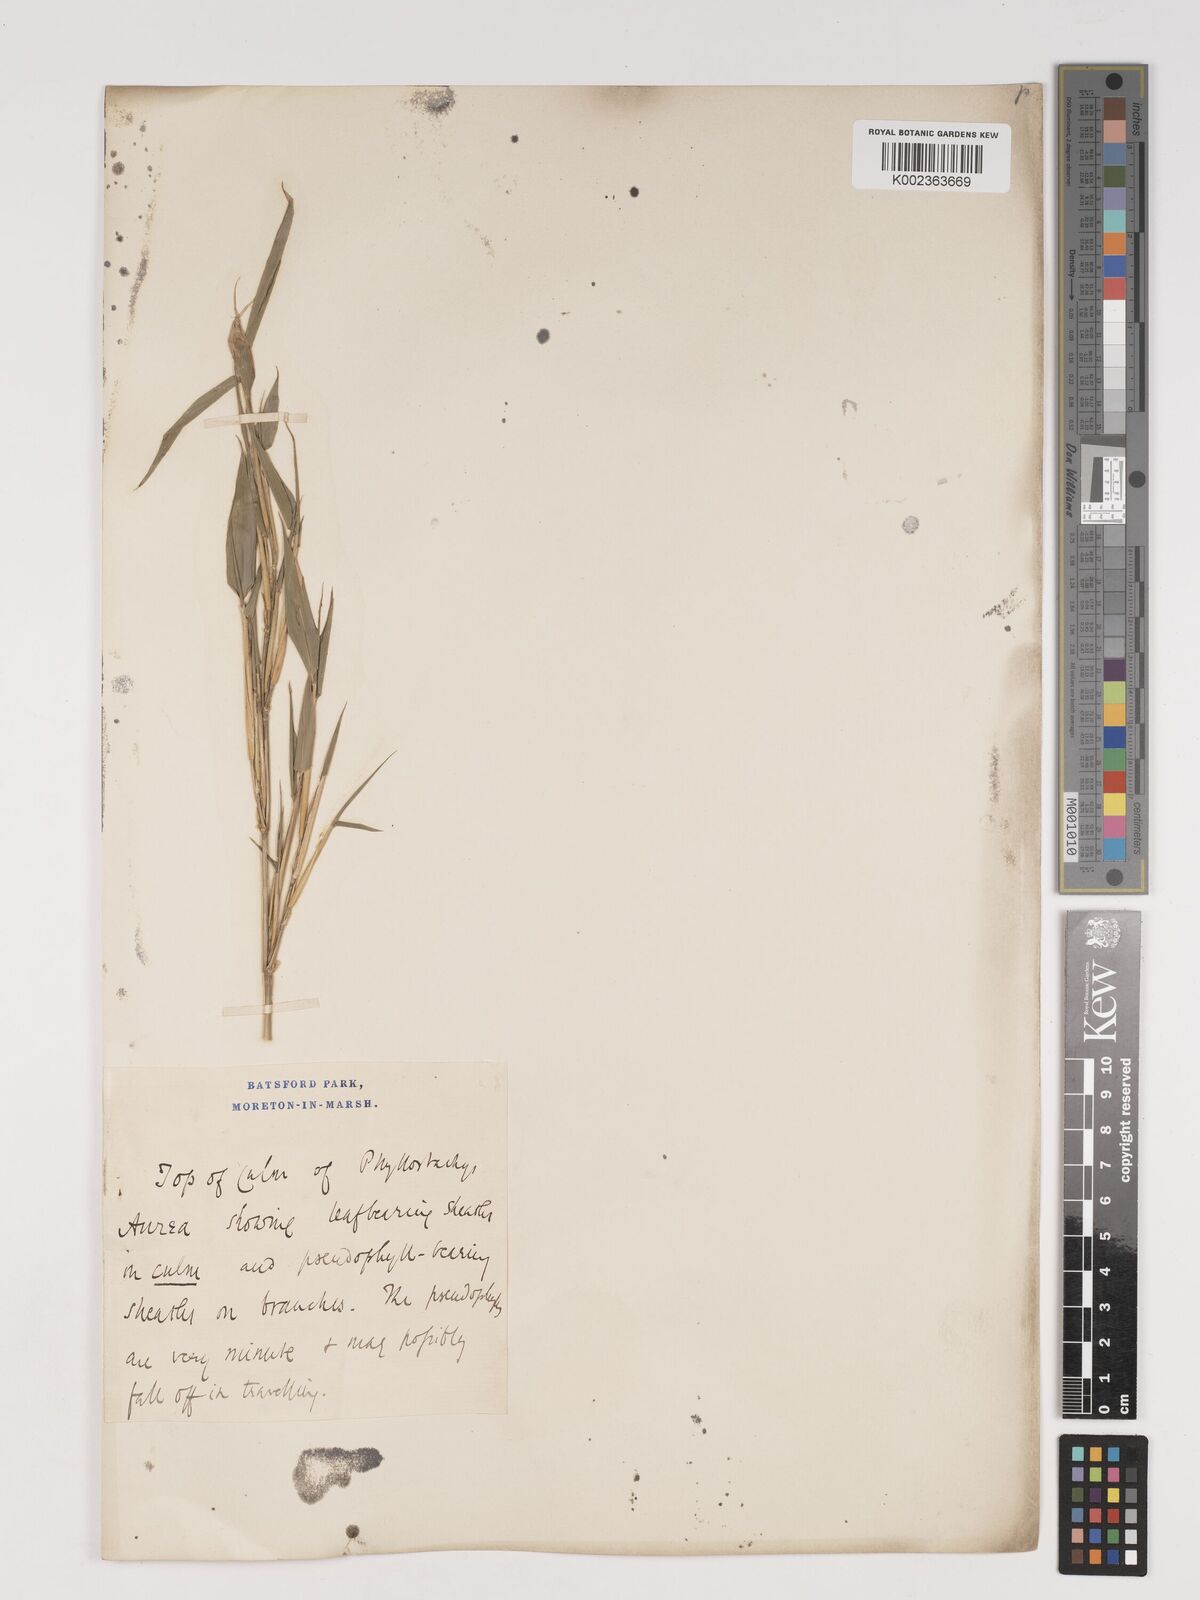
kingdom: Plantae
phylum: Tracheophyta
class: Liliopsida
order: Poales
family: Poaceae
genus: Phyllostachys
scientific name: Phyllostachys aurea
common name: Golden bamboo
